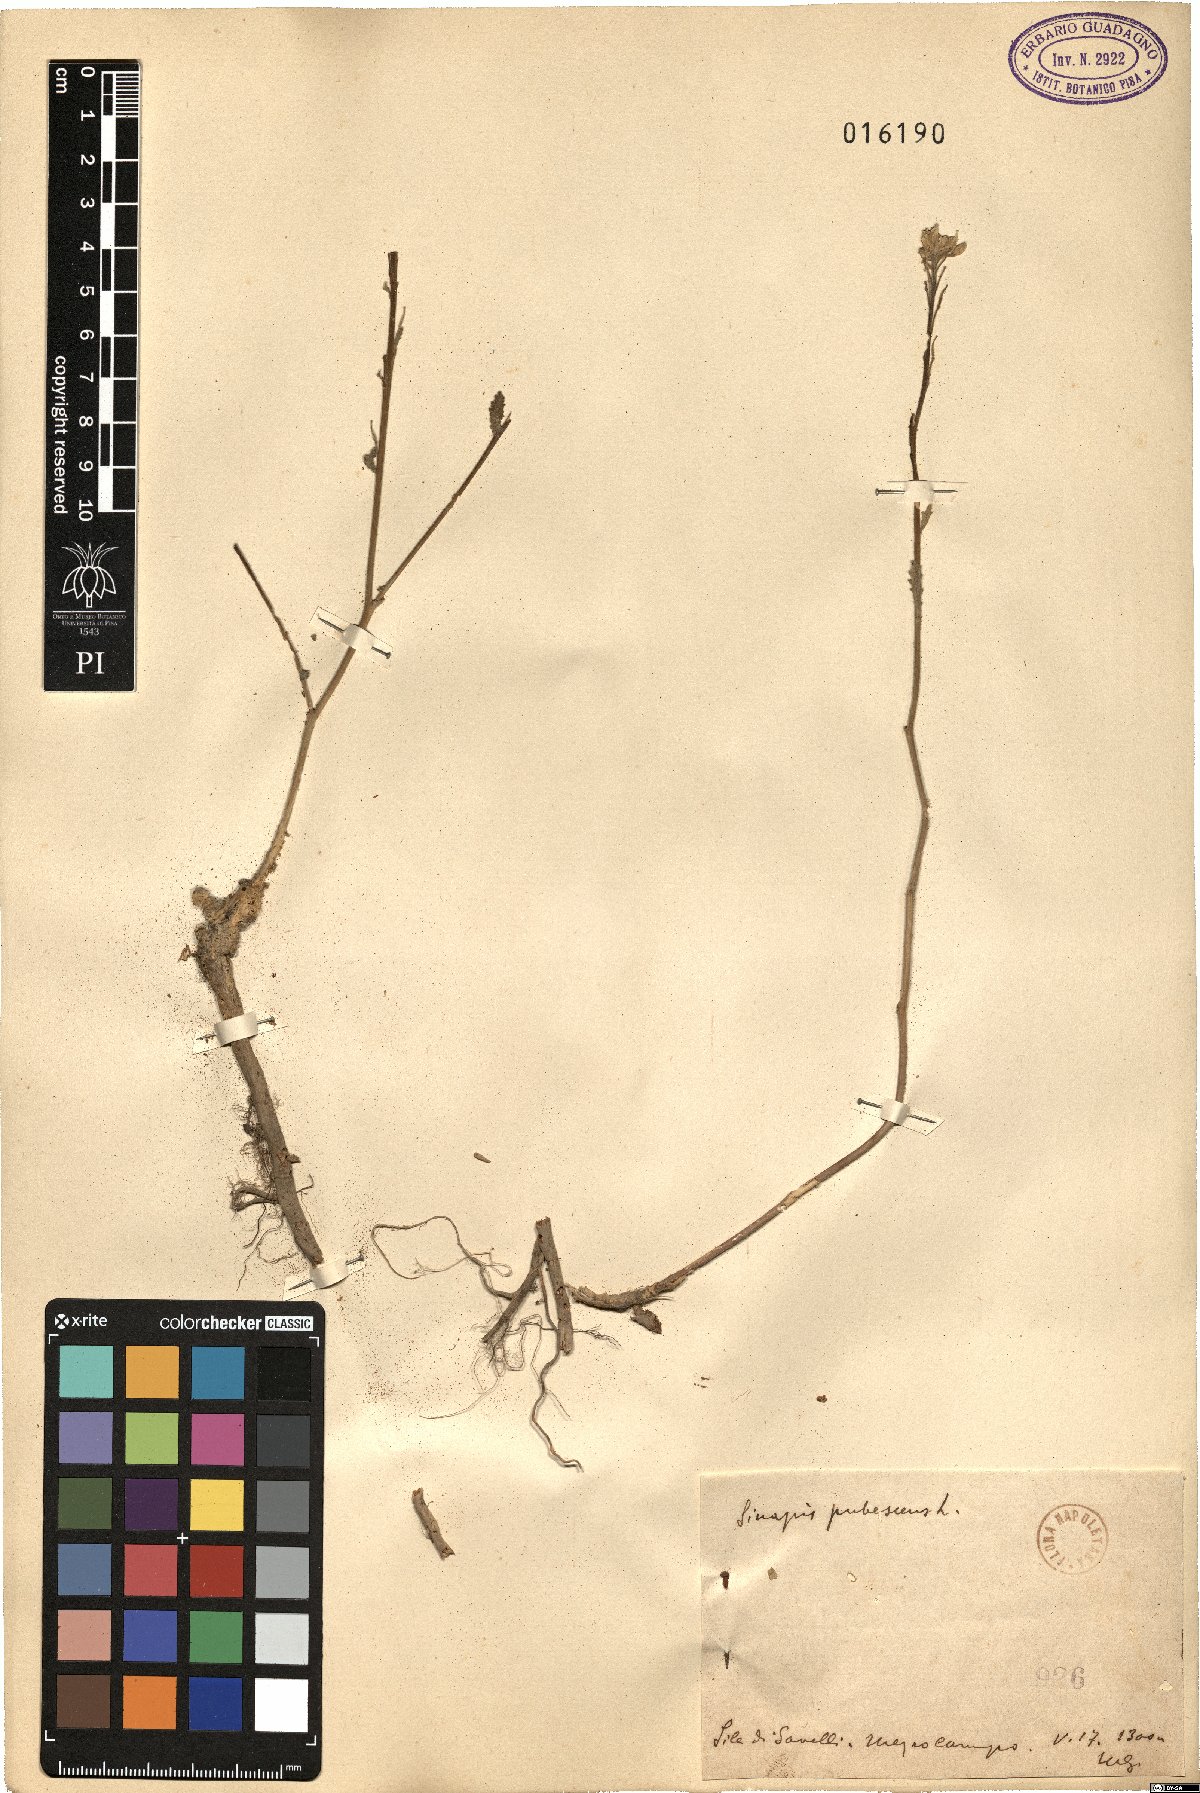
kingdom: Plantae
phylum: Tracheophyta
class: Magnoliopsida
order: Brassicales
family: Brassicaceae
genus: Sinapis
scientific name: Sinapis pubescens
